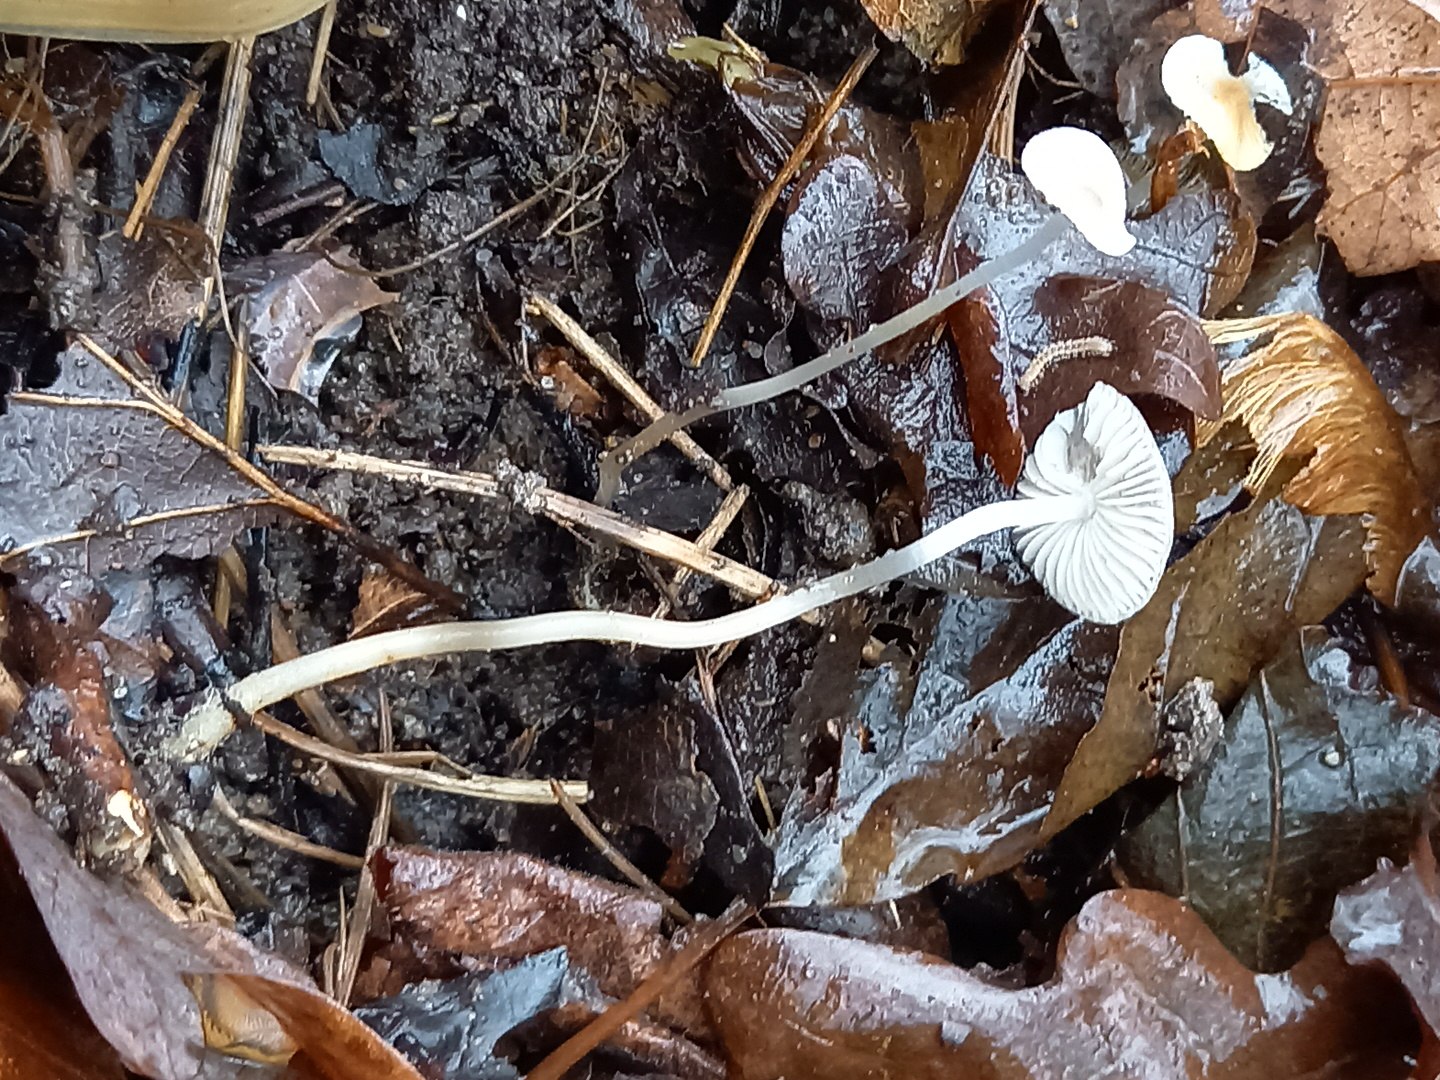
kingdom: Fungi
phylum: Basidiomycota
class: Agaricomycetes
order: Agaricales
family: Mycenaceae
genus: Mycena
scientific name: Mycena vitilis
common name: blankstokket huesvamp
